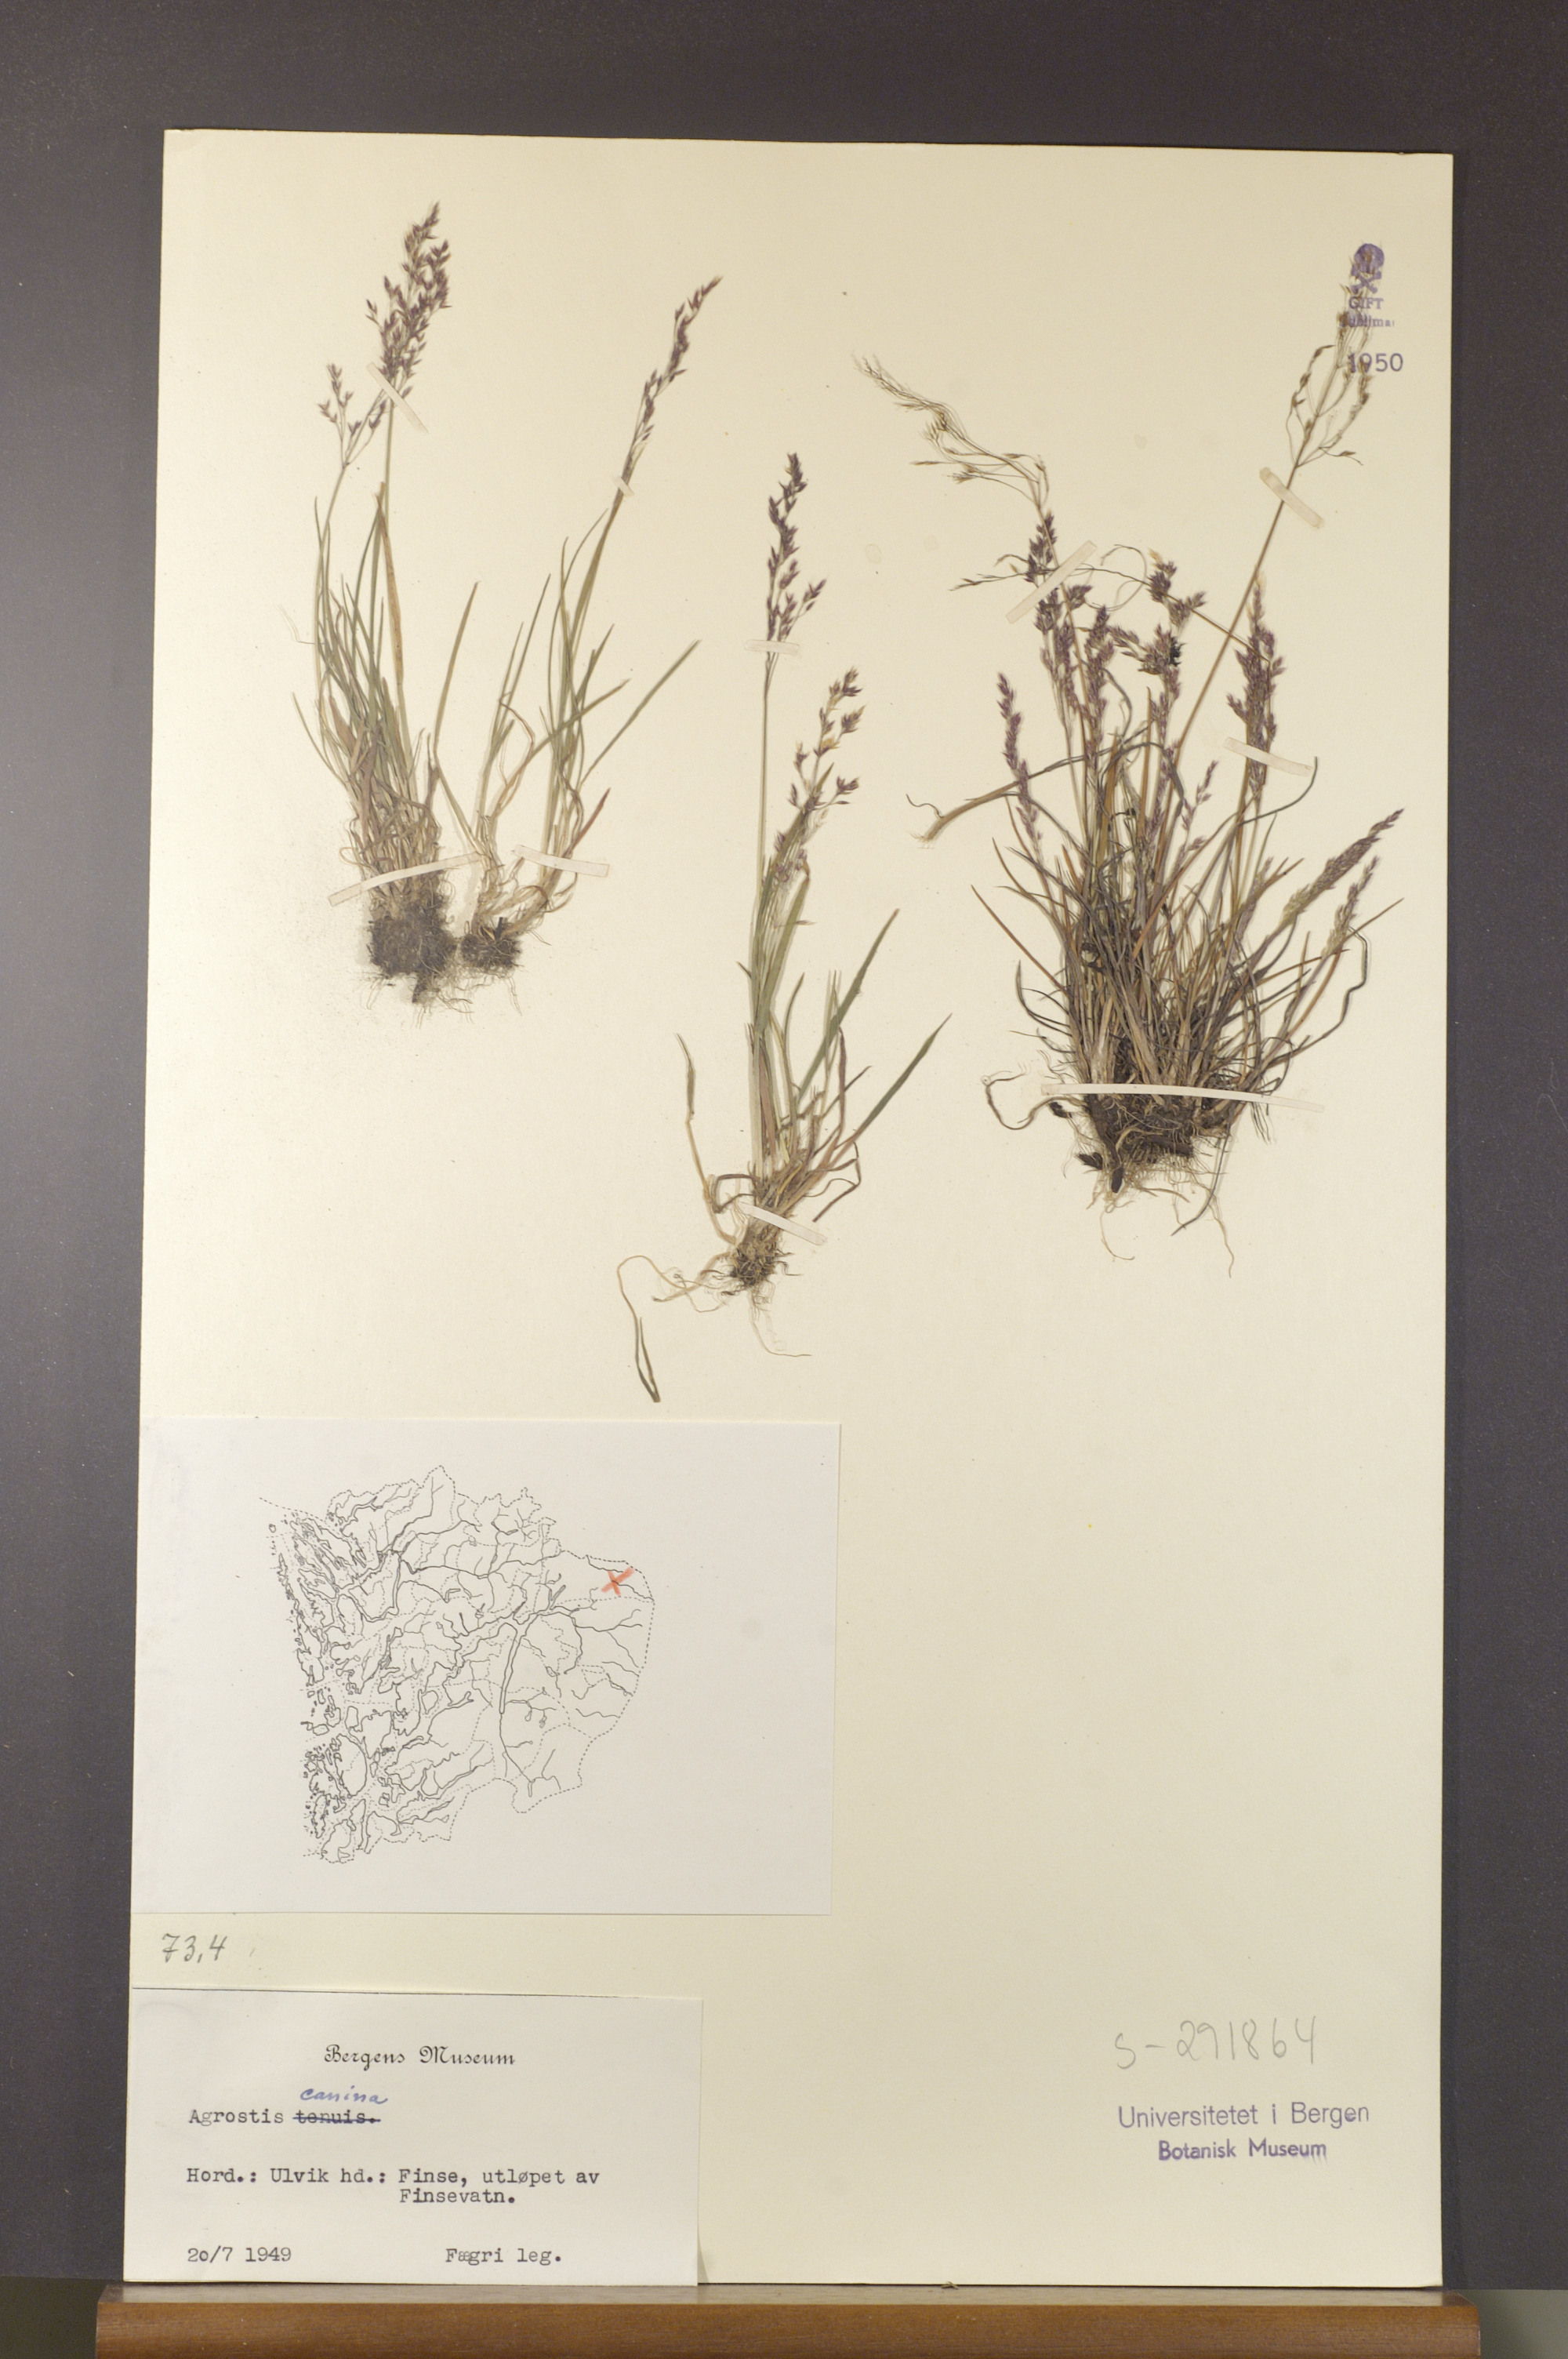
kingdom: Plantae
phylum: Tracheophyta
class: Liliopsida
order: Poales
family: Poaceae
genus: Agrostis
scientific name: Agrostis canina
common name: Velvet bent
